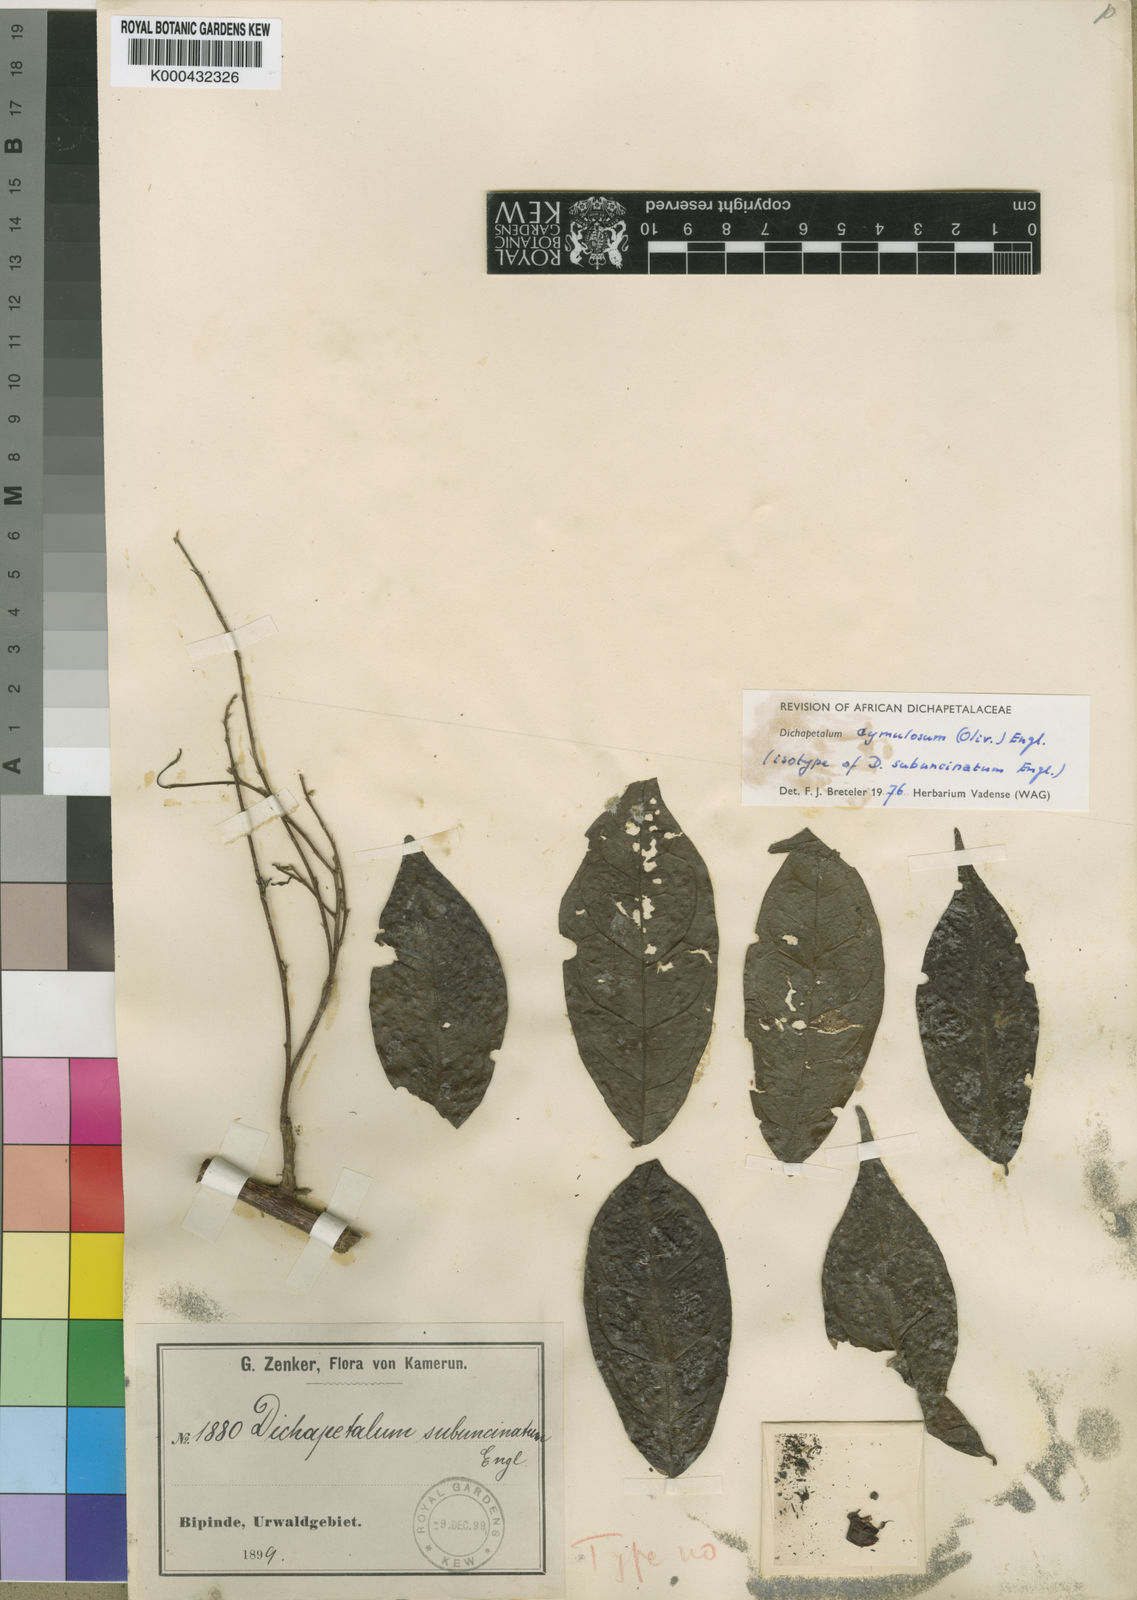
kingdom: Plantae
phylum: Tracheophyta
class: Magnoliopsida
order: Malpighiales
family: Dichapetalaceae
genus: Dichapetalum
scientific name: Dichapetalum cymulosum
